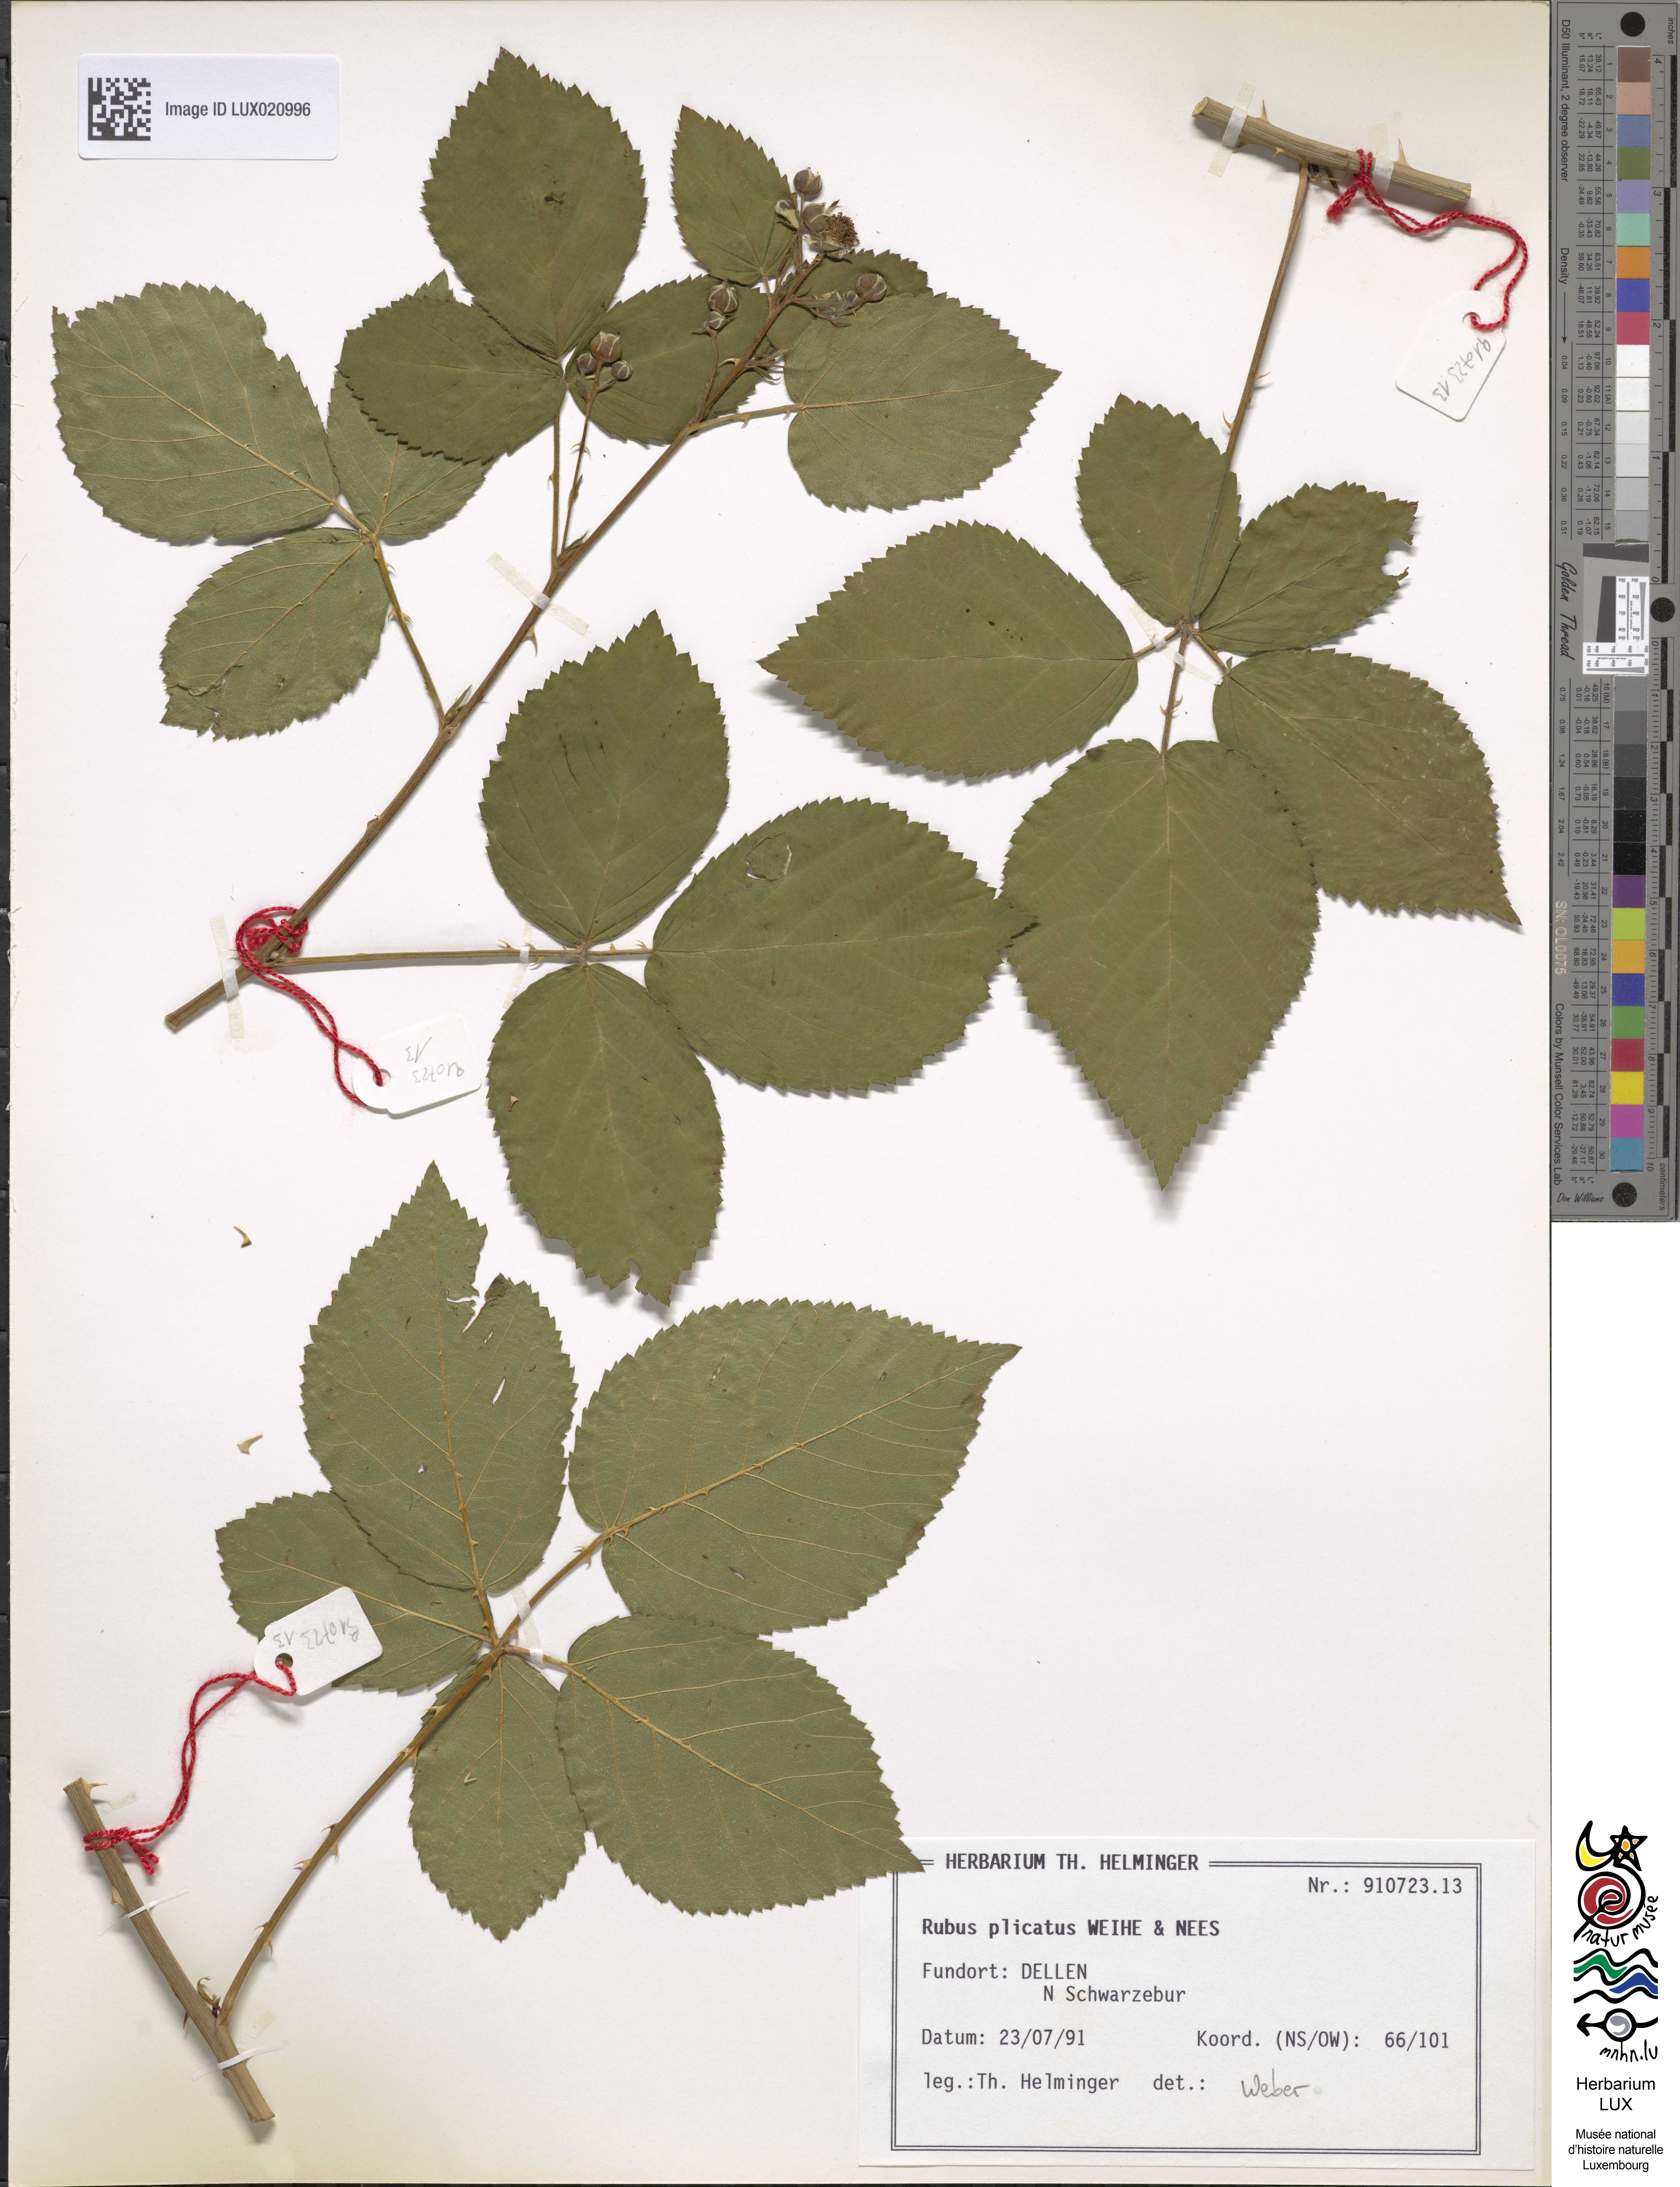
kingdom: Plantae
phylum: Tracheophyta
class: Magnoliopsida
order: Rosales
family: Rosaceae
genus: Rubus
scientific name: Rubus plicatus
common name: Plaited-leaved bramble
